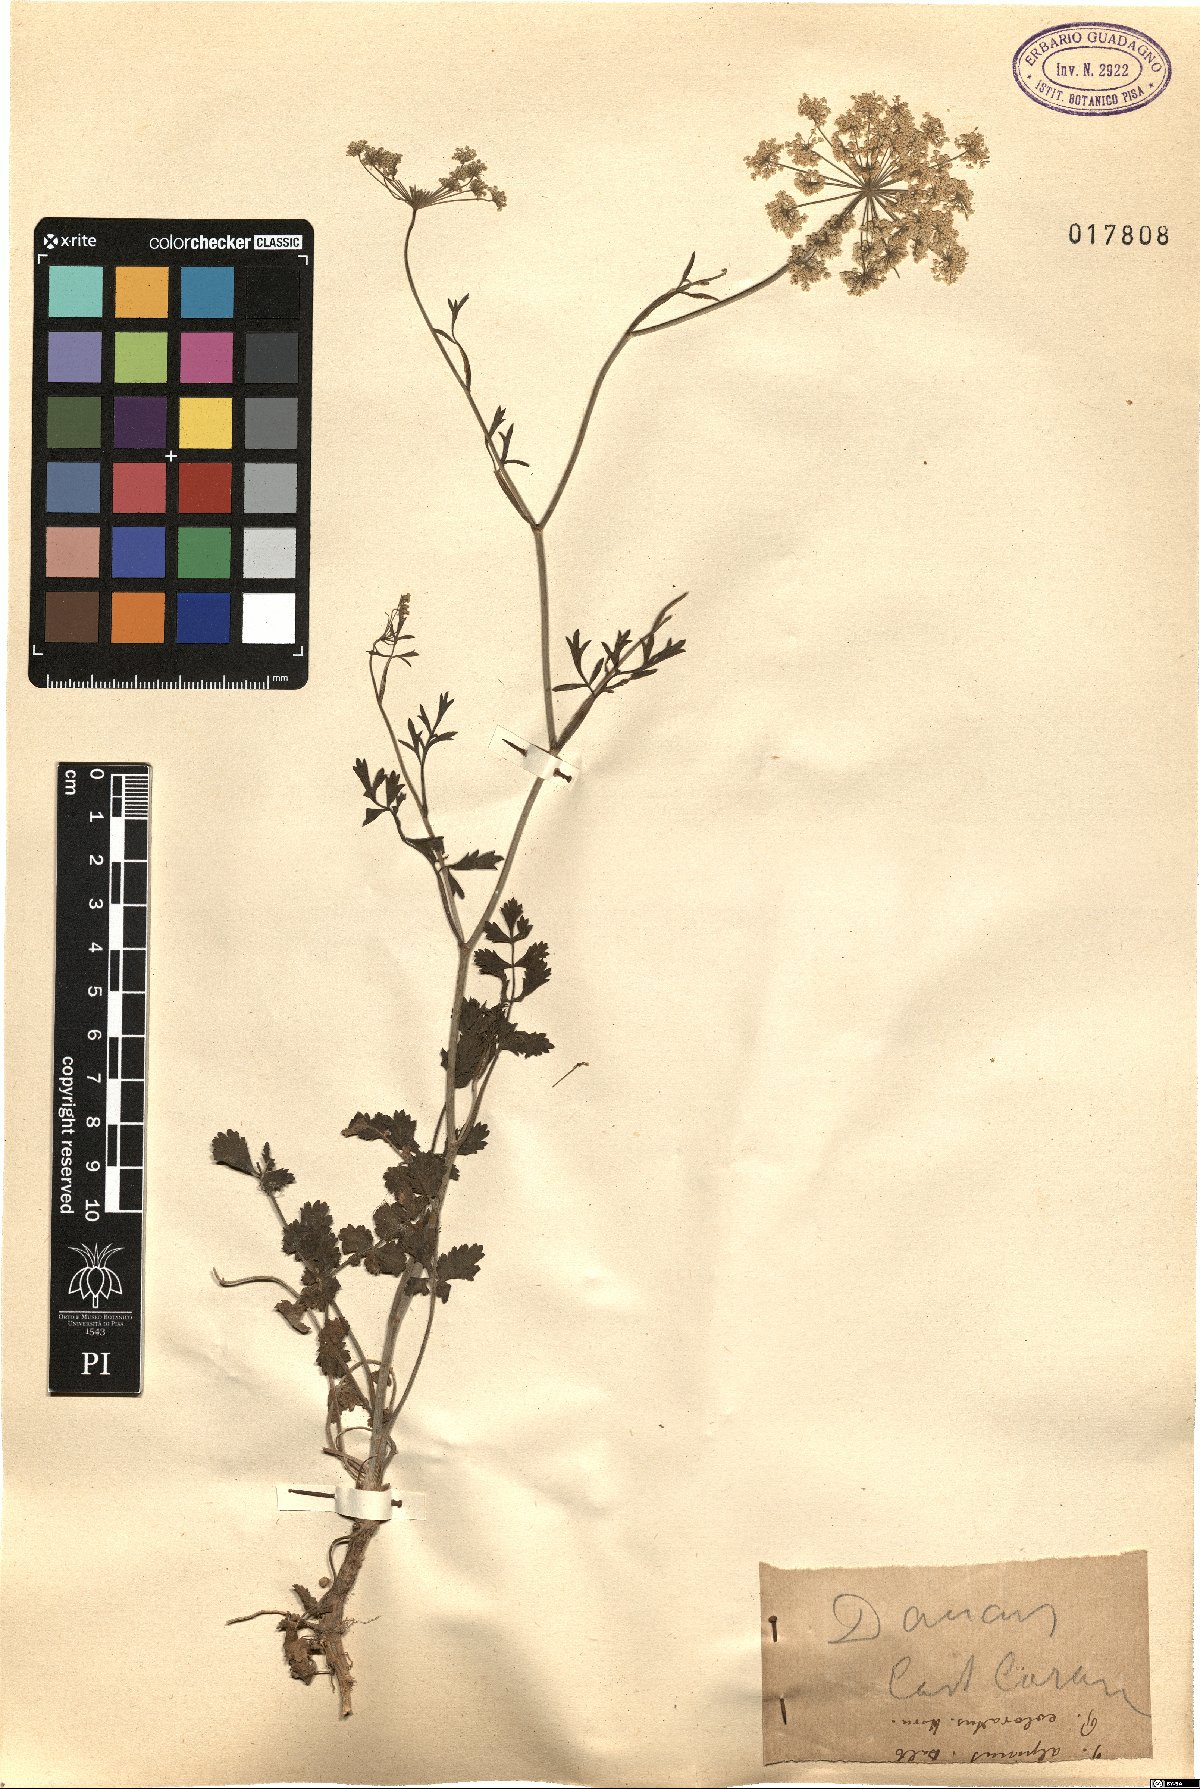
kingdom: Plantae
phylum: Tracheophyta
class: Magnoliopsida
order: Apiales
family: Apiaceae
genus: Daucus
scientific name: Daucus
